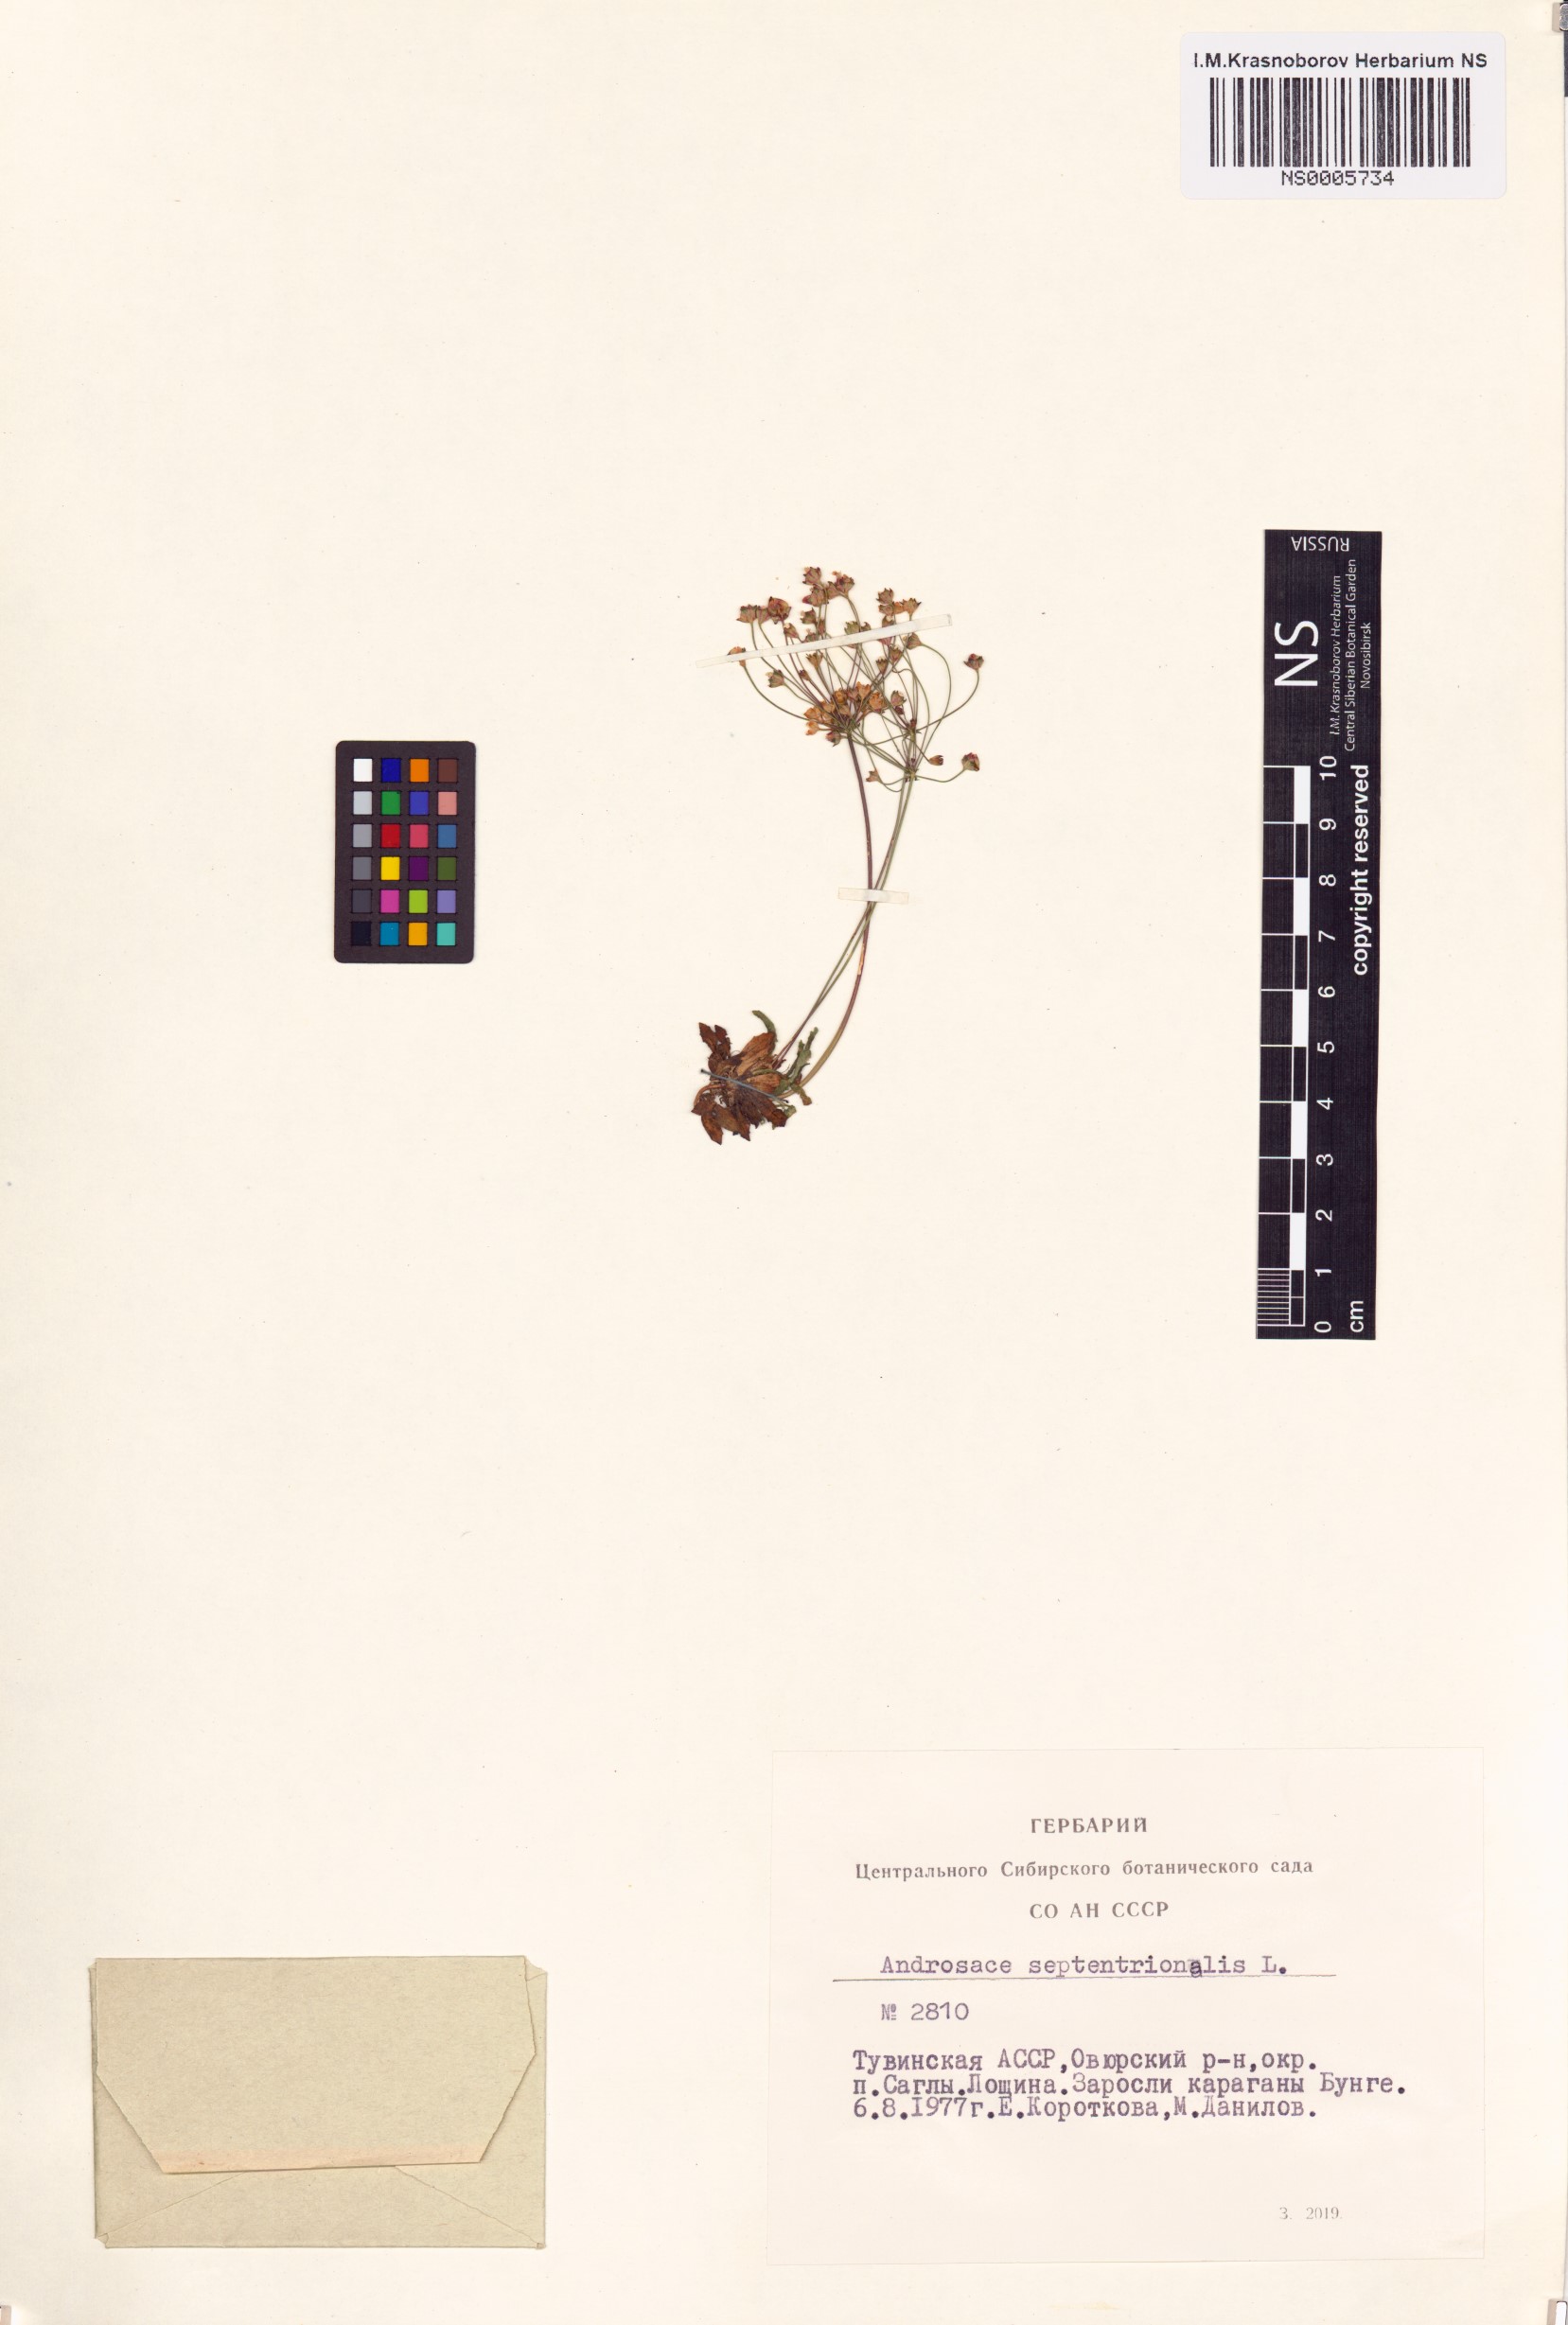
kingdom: Plantae
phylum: Tracheophyta
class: Magnoliopsida
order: Ericales
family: Primulaceae
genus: Androsace
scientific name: Androsace septentrionalis
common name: Hairy northern fairy-candelabra
